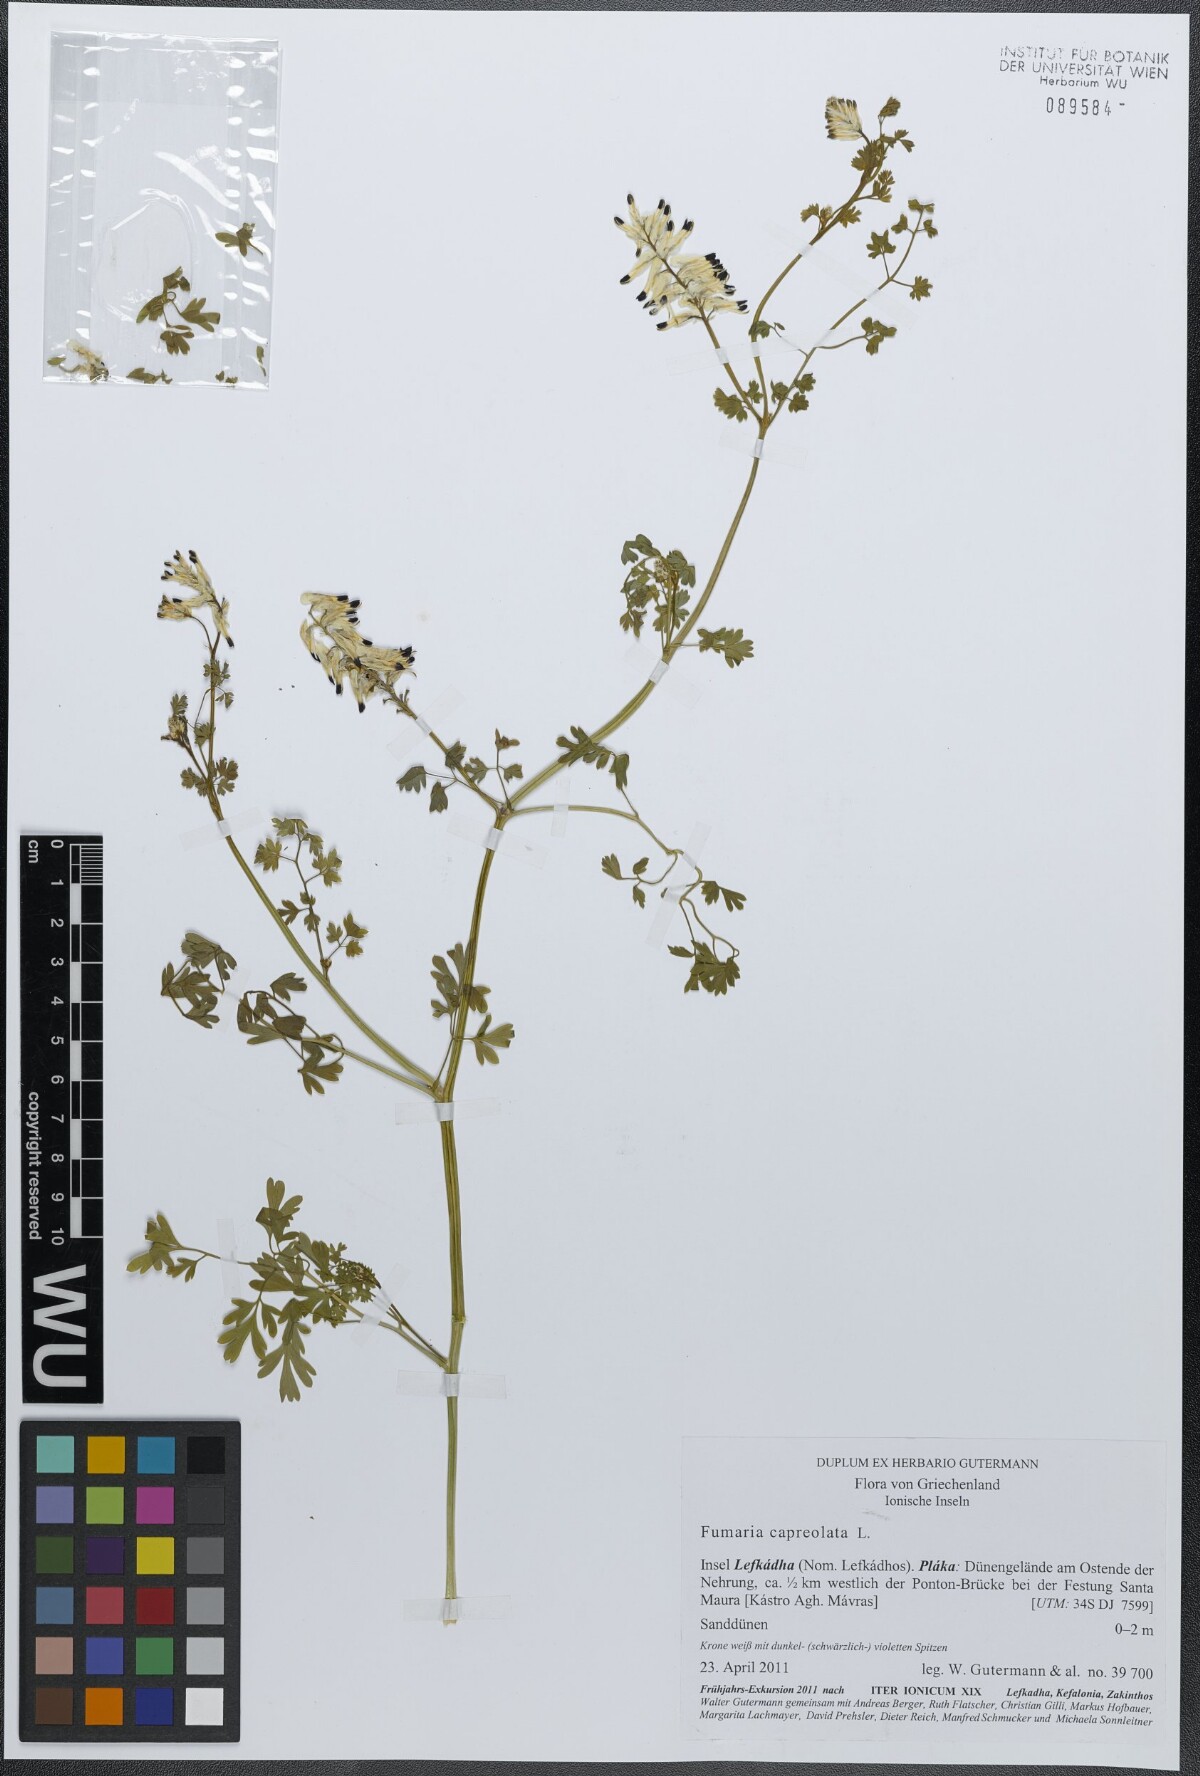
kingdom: Plantae
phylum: Tracheophyta
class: Magnoliopsida
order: Ranunculales
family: Papaveraceae
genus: Fumaria
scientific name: Fumaria capreolata
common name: White ramping-fumitory
